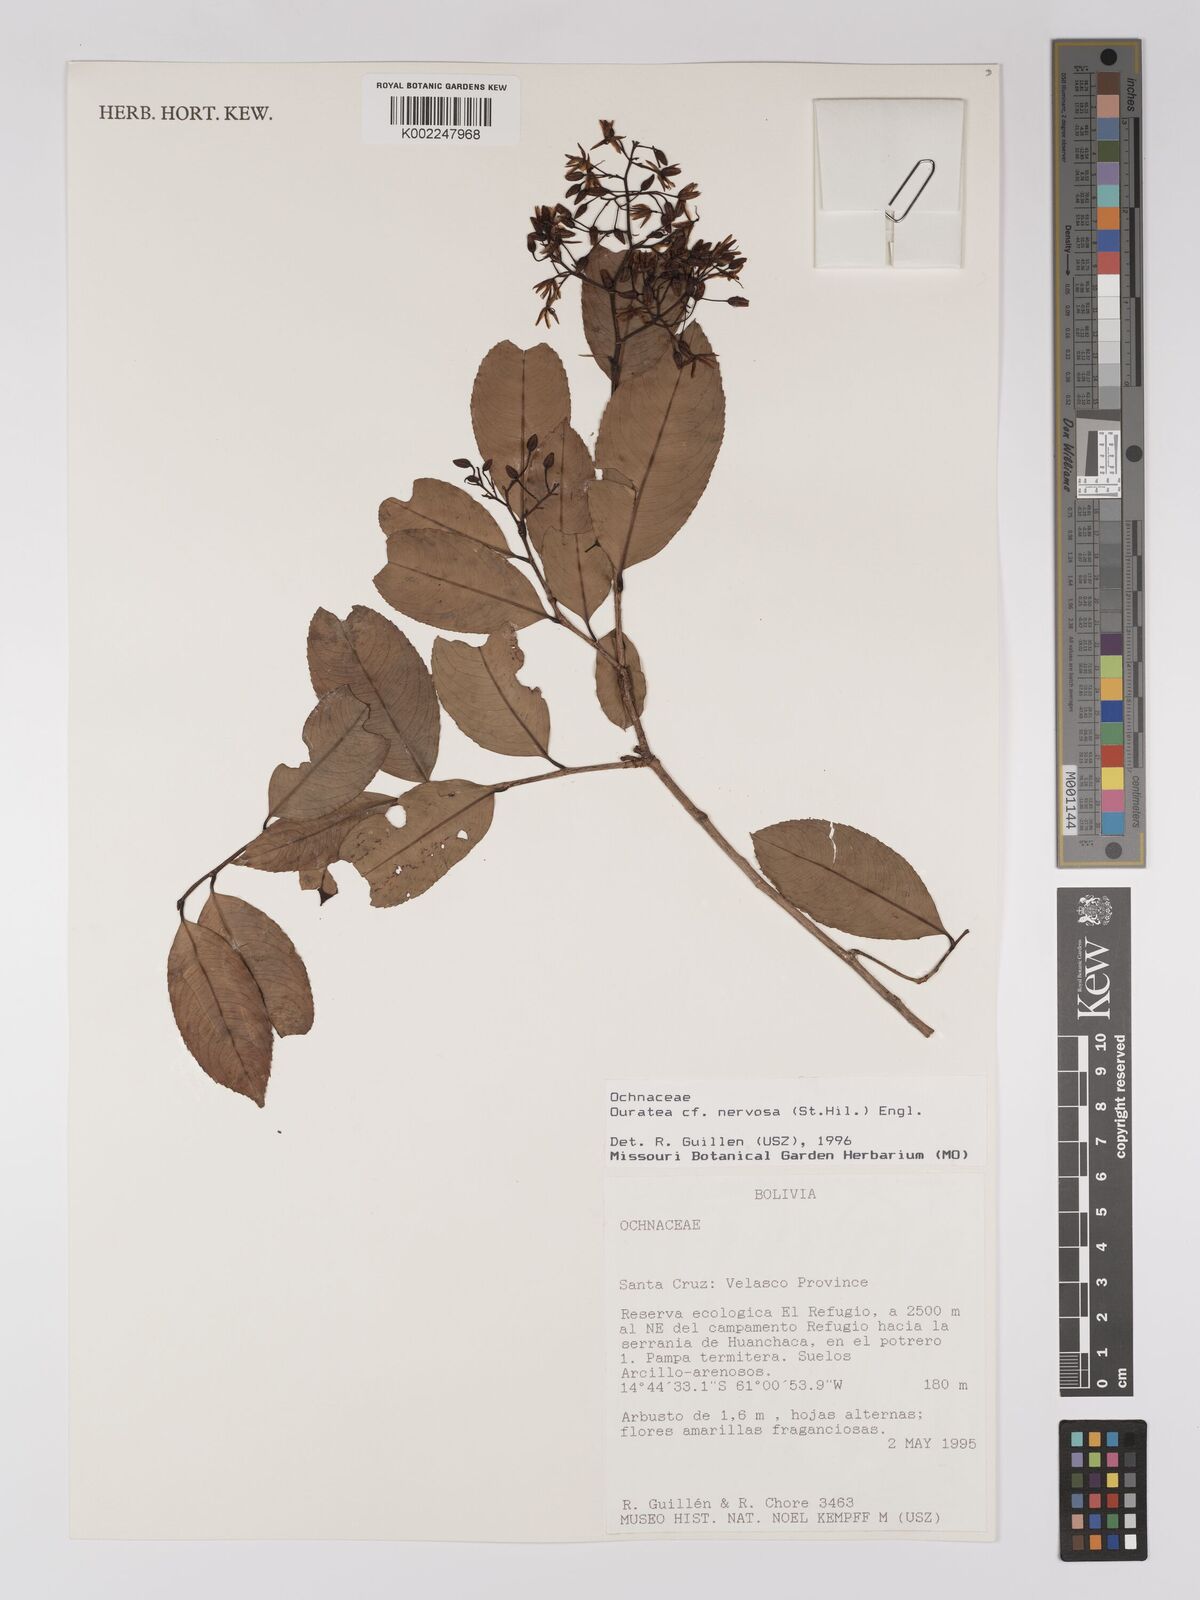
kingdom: Plantae
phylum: Tracheophyta
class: Magnoliopsida
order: Malpighiales
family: Ochnaceae
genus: Ouratea
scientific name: Ouratea nervosa
